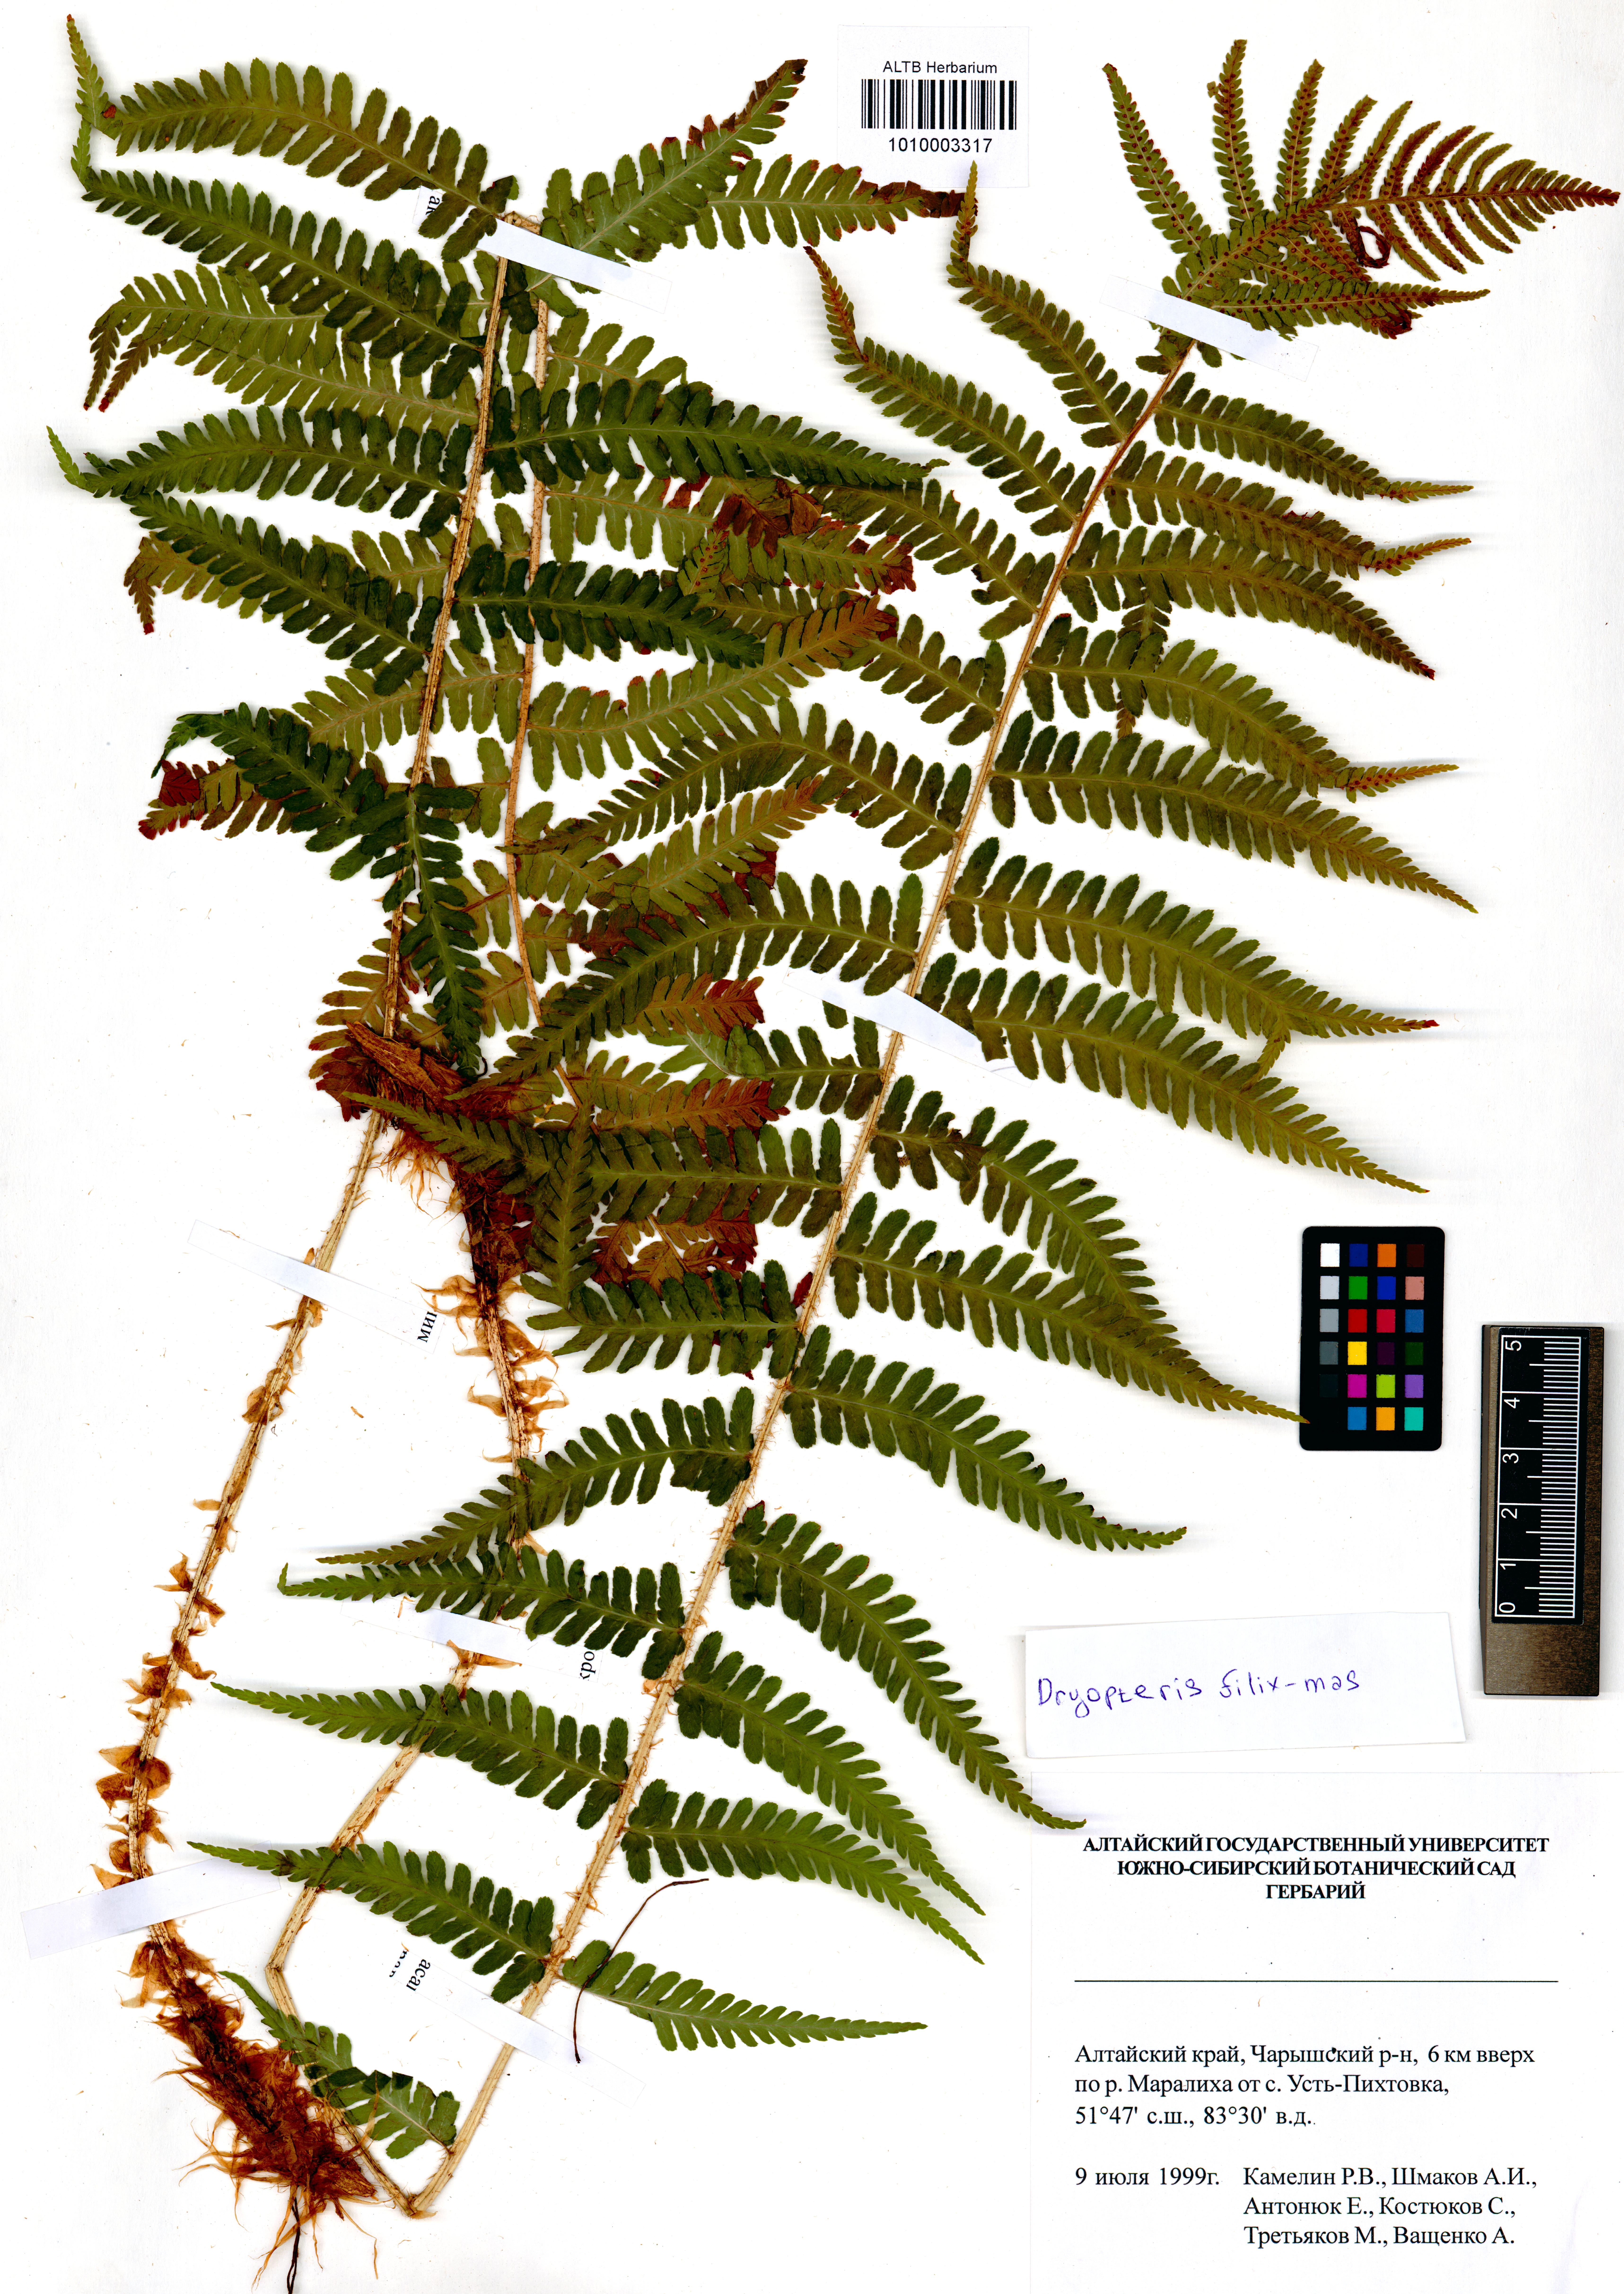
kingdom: Plantae
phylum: Tracheophyta
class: Polypodiopsida
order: Polypodiales
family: Dryopteridaceae
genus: Dryopteris
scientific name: Dryopteris filix-mas
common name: Male fern
